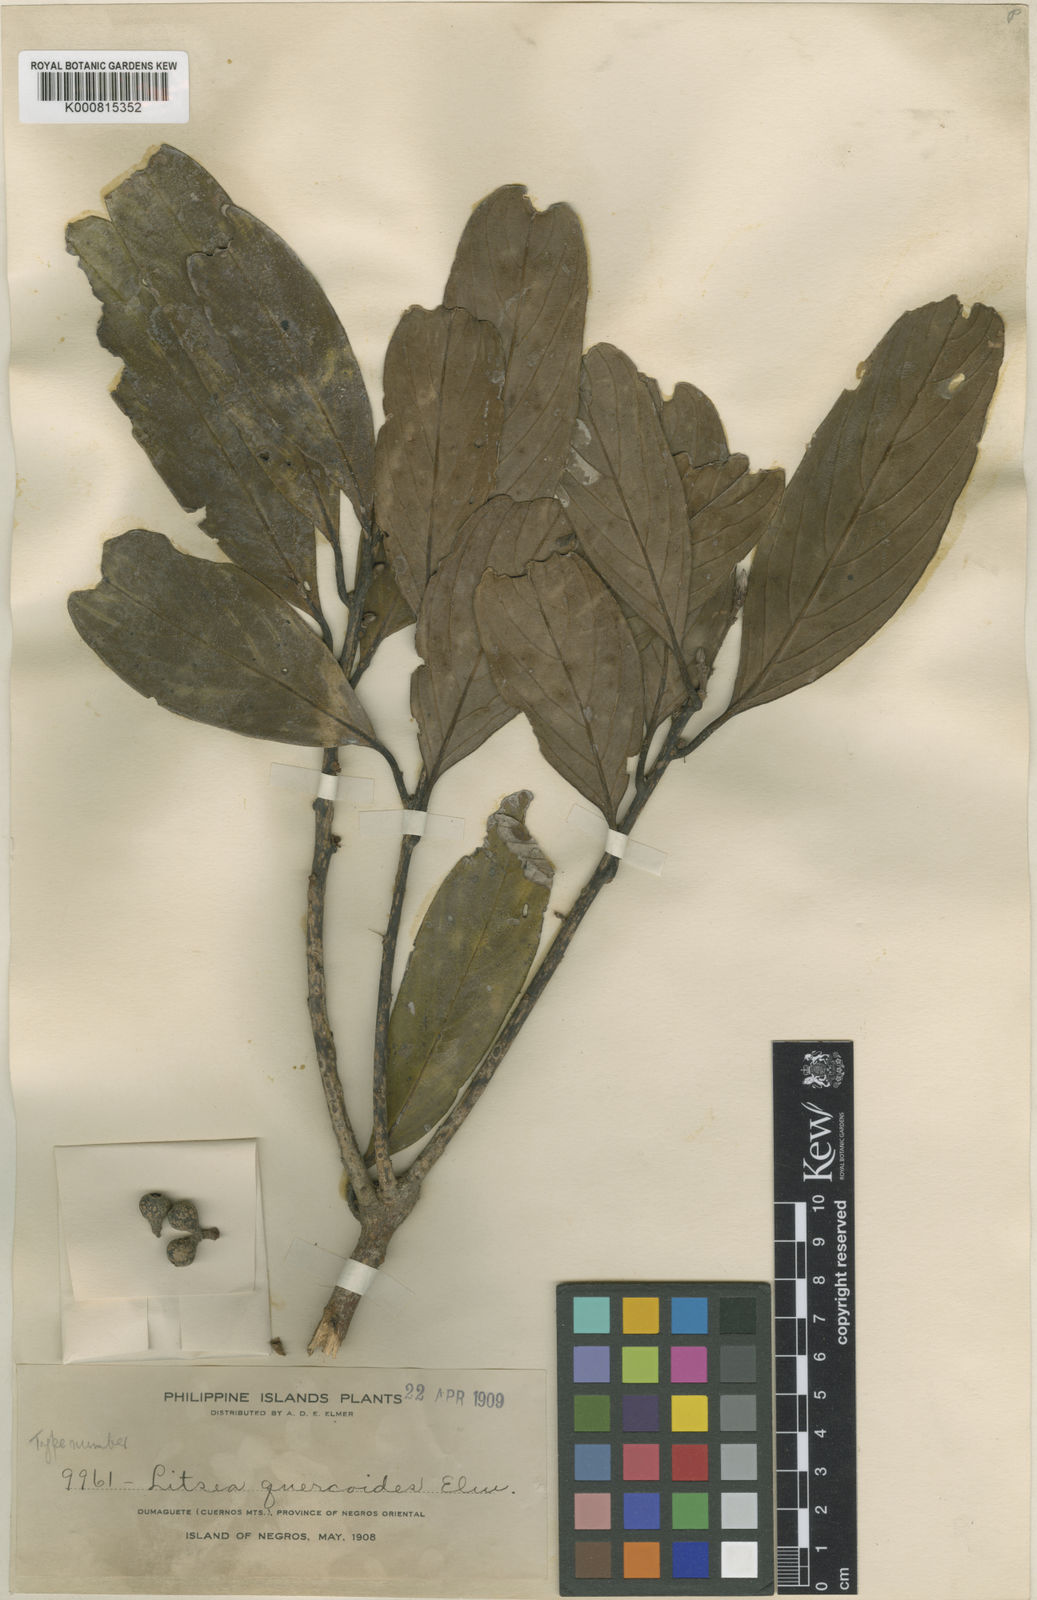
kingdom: Plantae
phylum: Tracheophyta
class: Magnoliopsida
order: Laurales
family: Lauraceae
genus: Litsea
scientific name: Litsea quercoides
